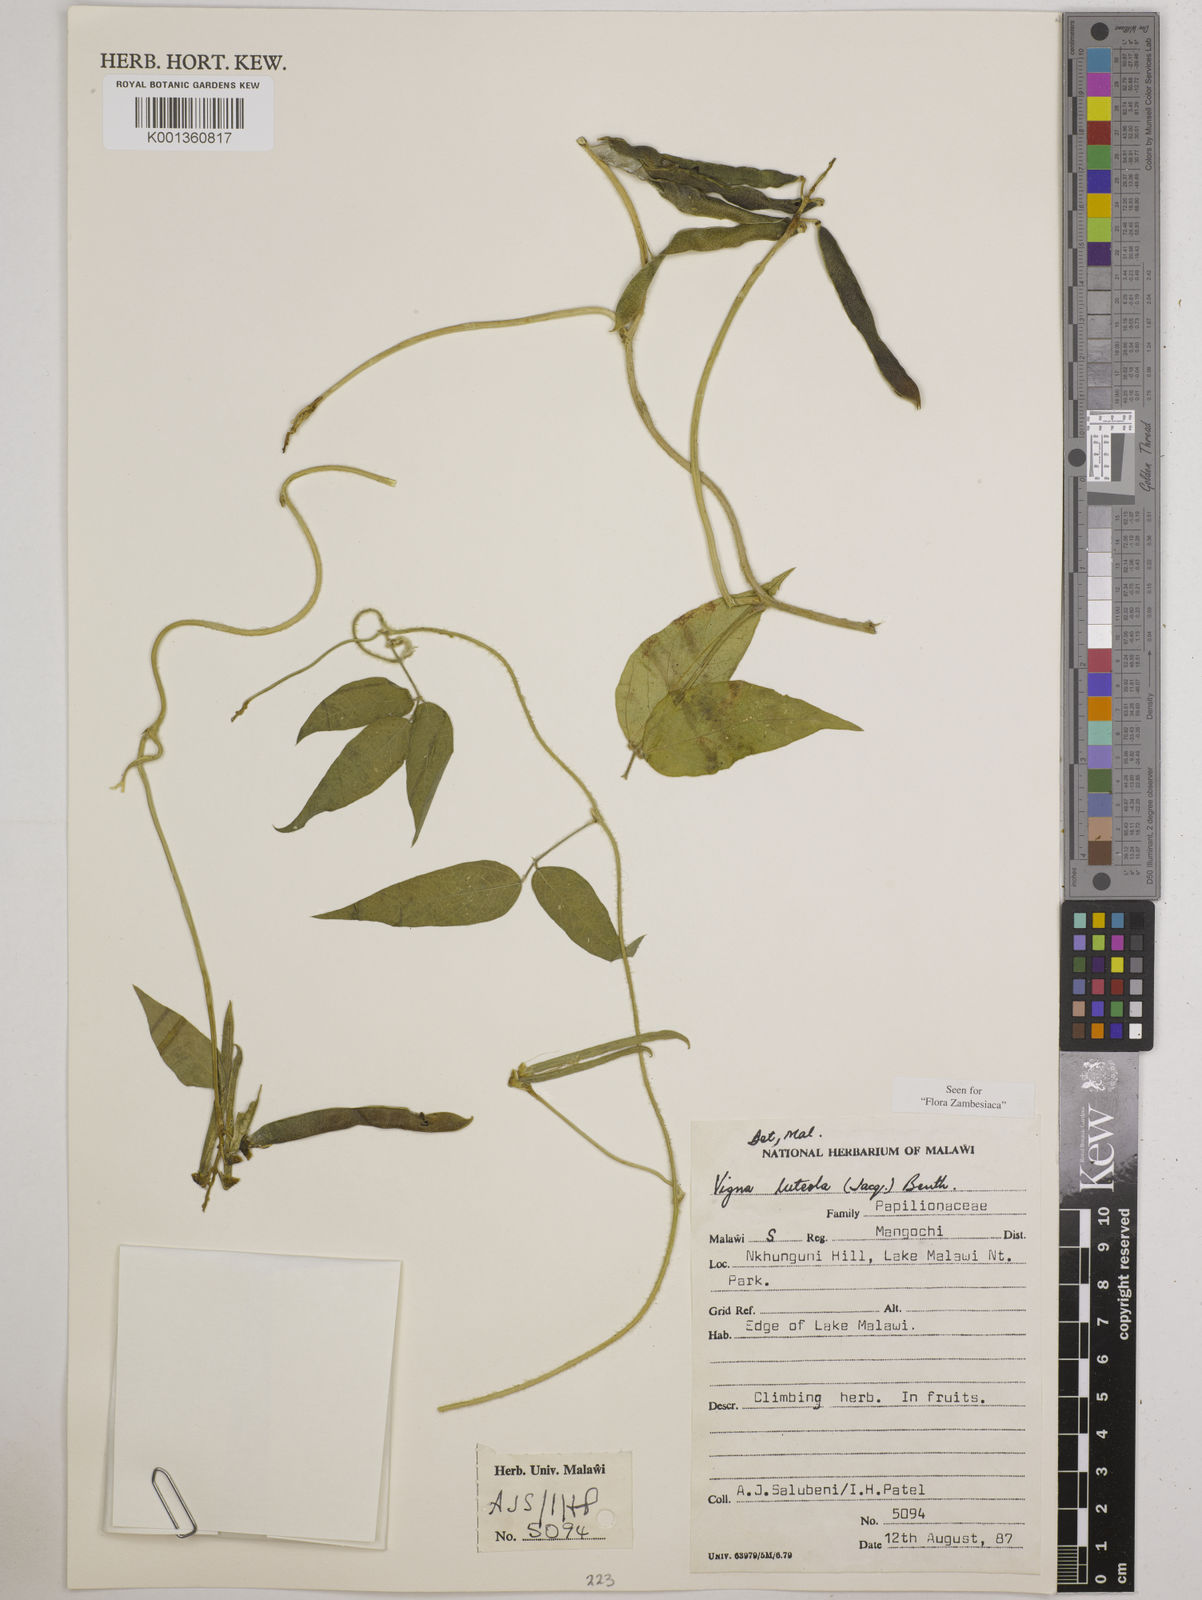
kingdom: Plantae
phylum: Tracheophyta
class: Magnoliopsida
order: Fabales
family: Fabaceae
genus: Vigna
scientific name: Vigna luteola
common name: Hairypod cowpea
